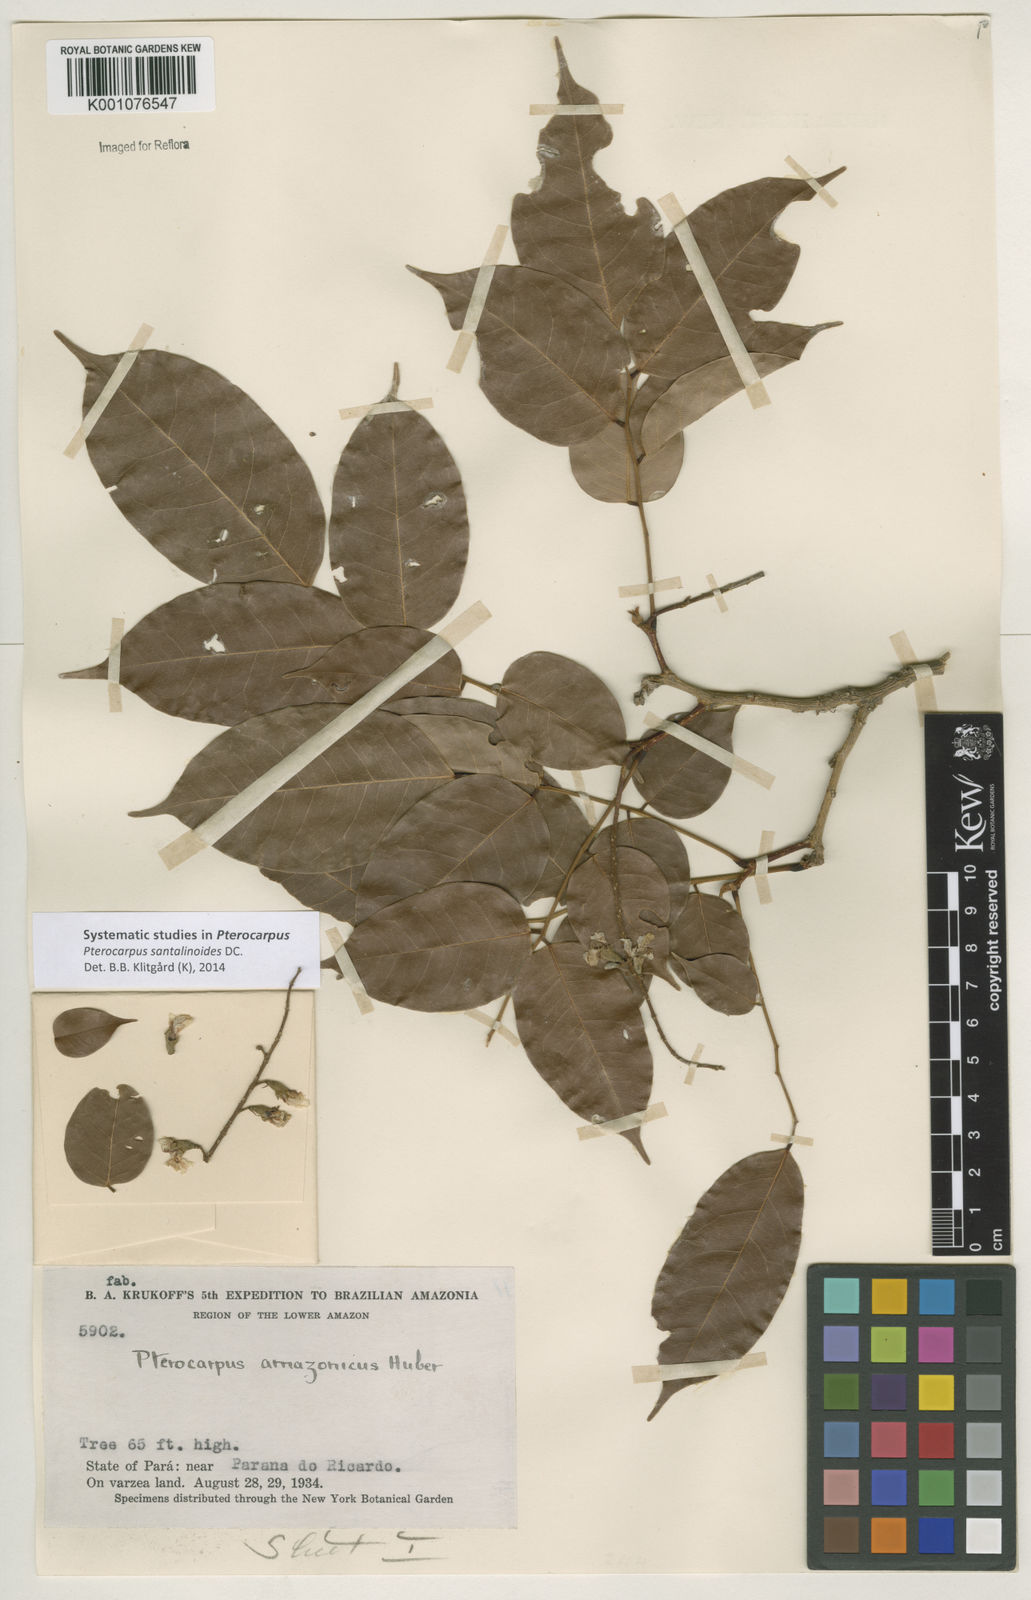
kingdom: Plantae
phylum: Tracheophyta
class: Magnoliopsida
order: Fabales
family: Fabaceae
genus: Pterocarpus
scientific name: Pterocarpus santalinoides
